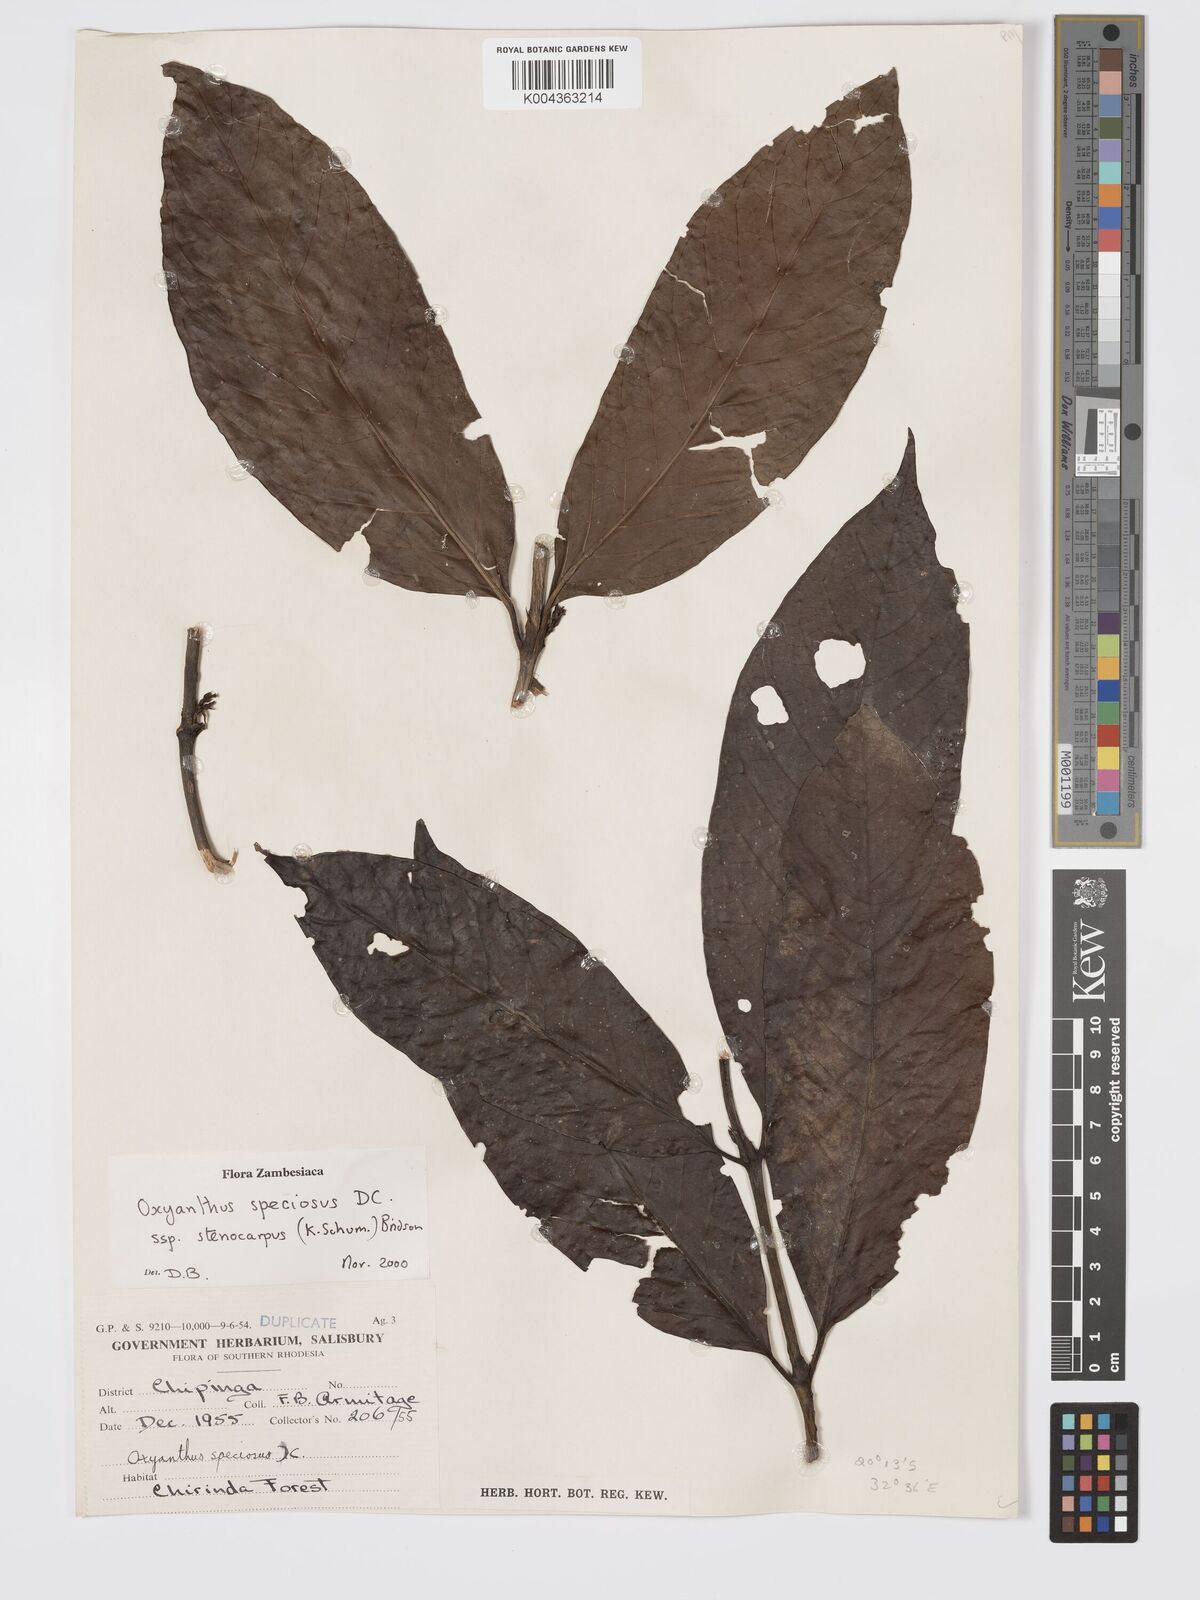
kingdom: Plantae
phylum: Tracheophyta
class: Magnoliopsida
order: Gentianales
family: Rubiaceae
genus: Oxyanthus
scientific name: Oxyanthus speciosus
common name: Whipstick loquat
